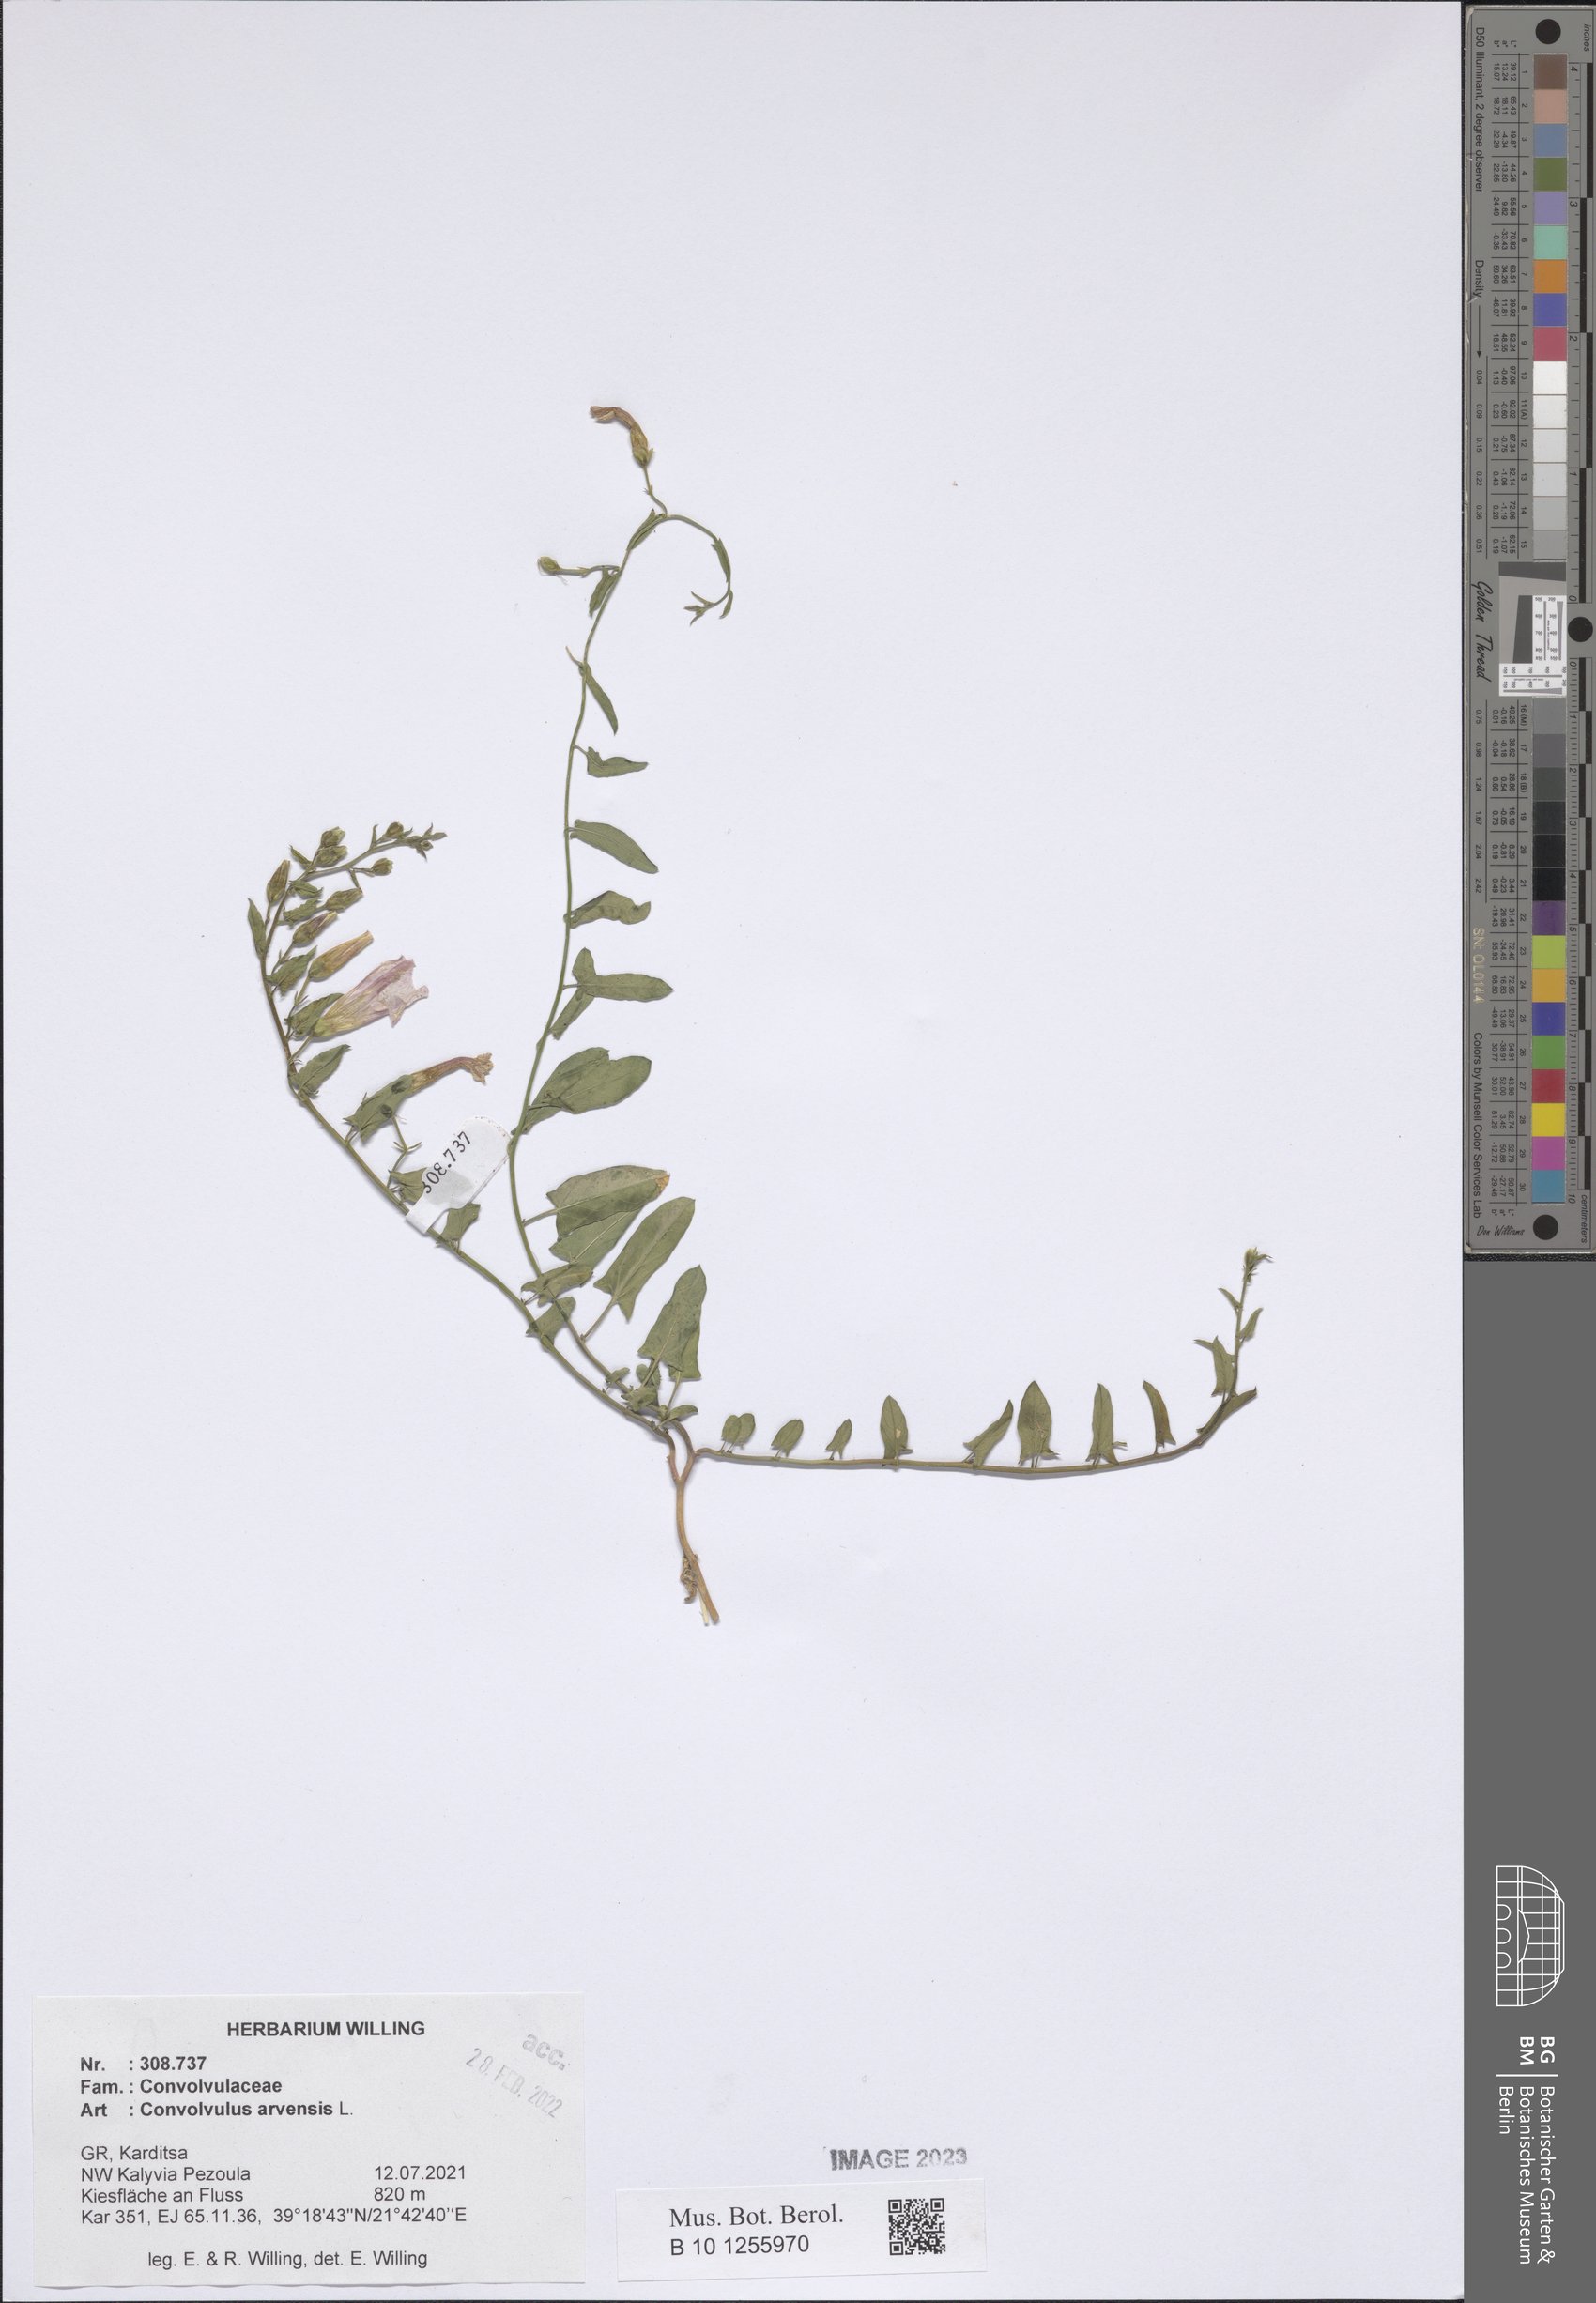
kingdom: Plantae
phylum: Tracheophyta
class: Magnoliopsida
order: Solanales
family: Convolvulaceae
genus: Convolvulus
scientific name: Convolvulus arvensis
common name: Field bindweed
